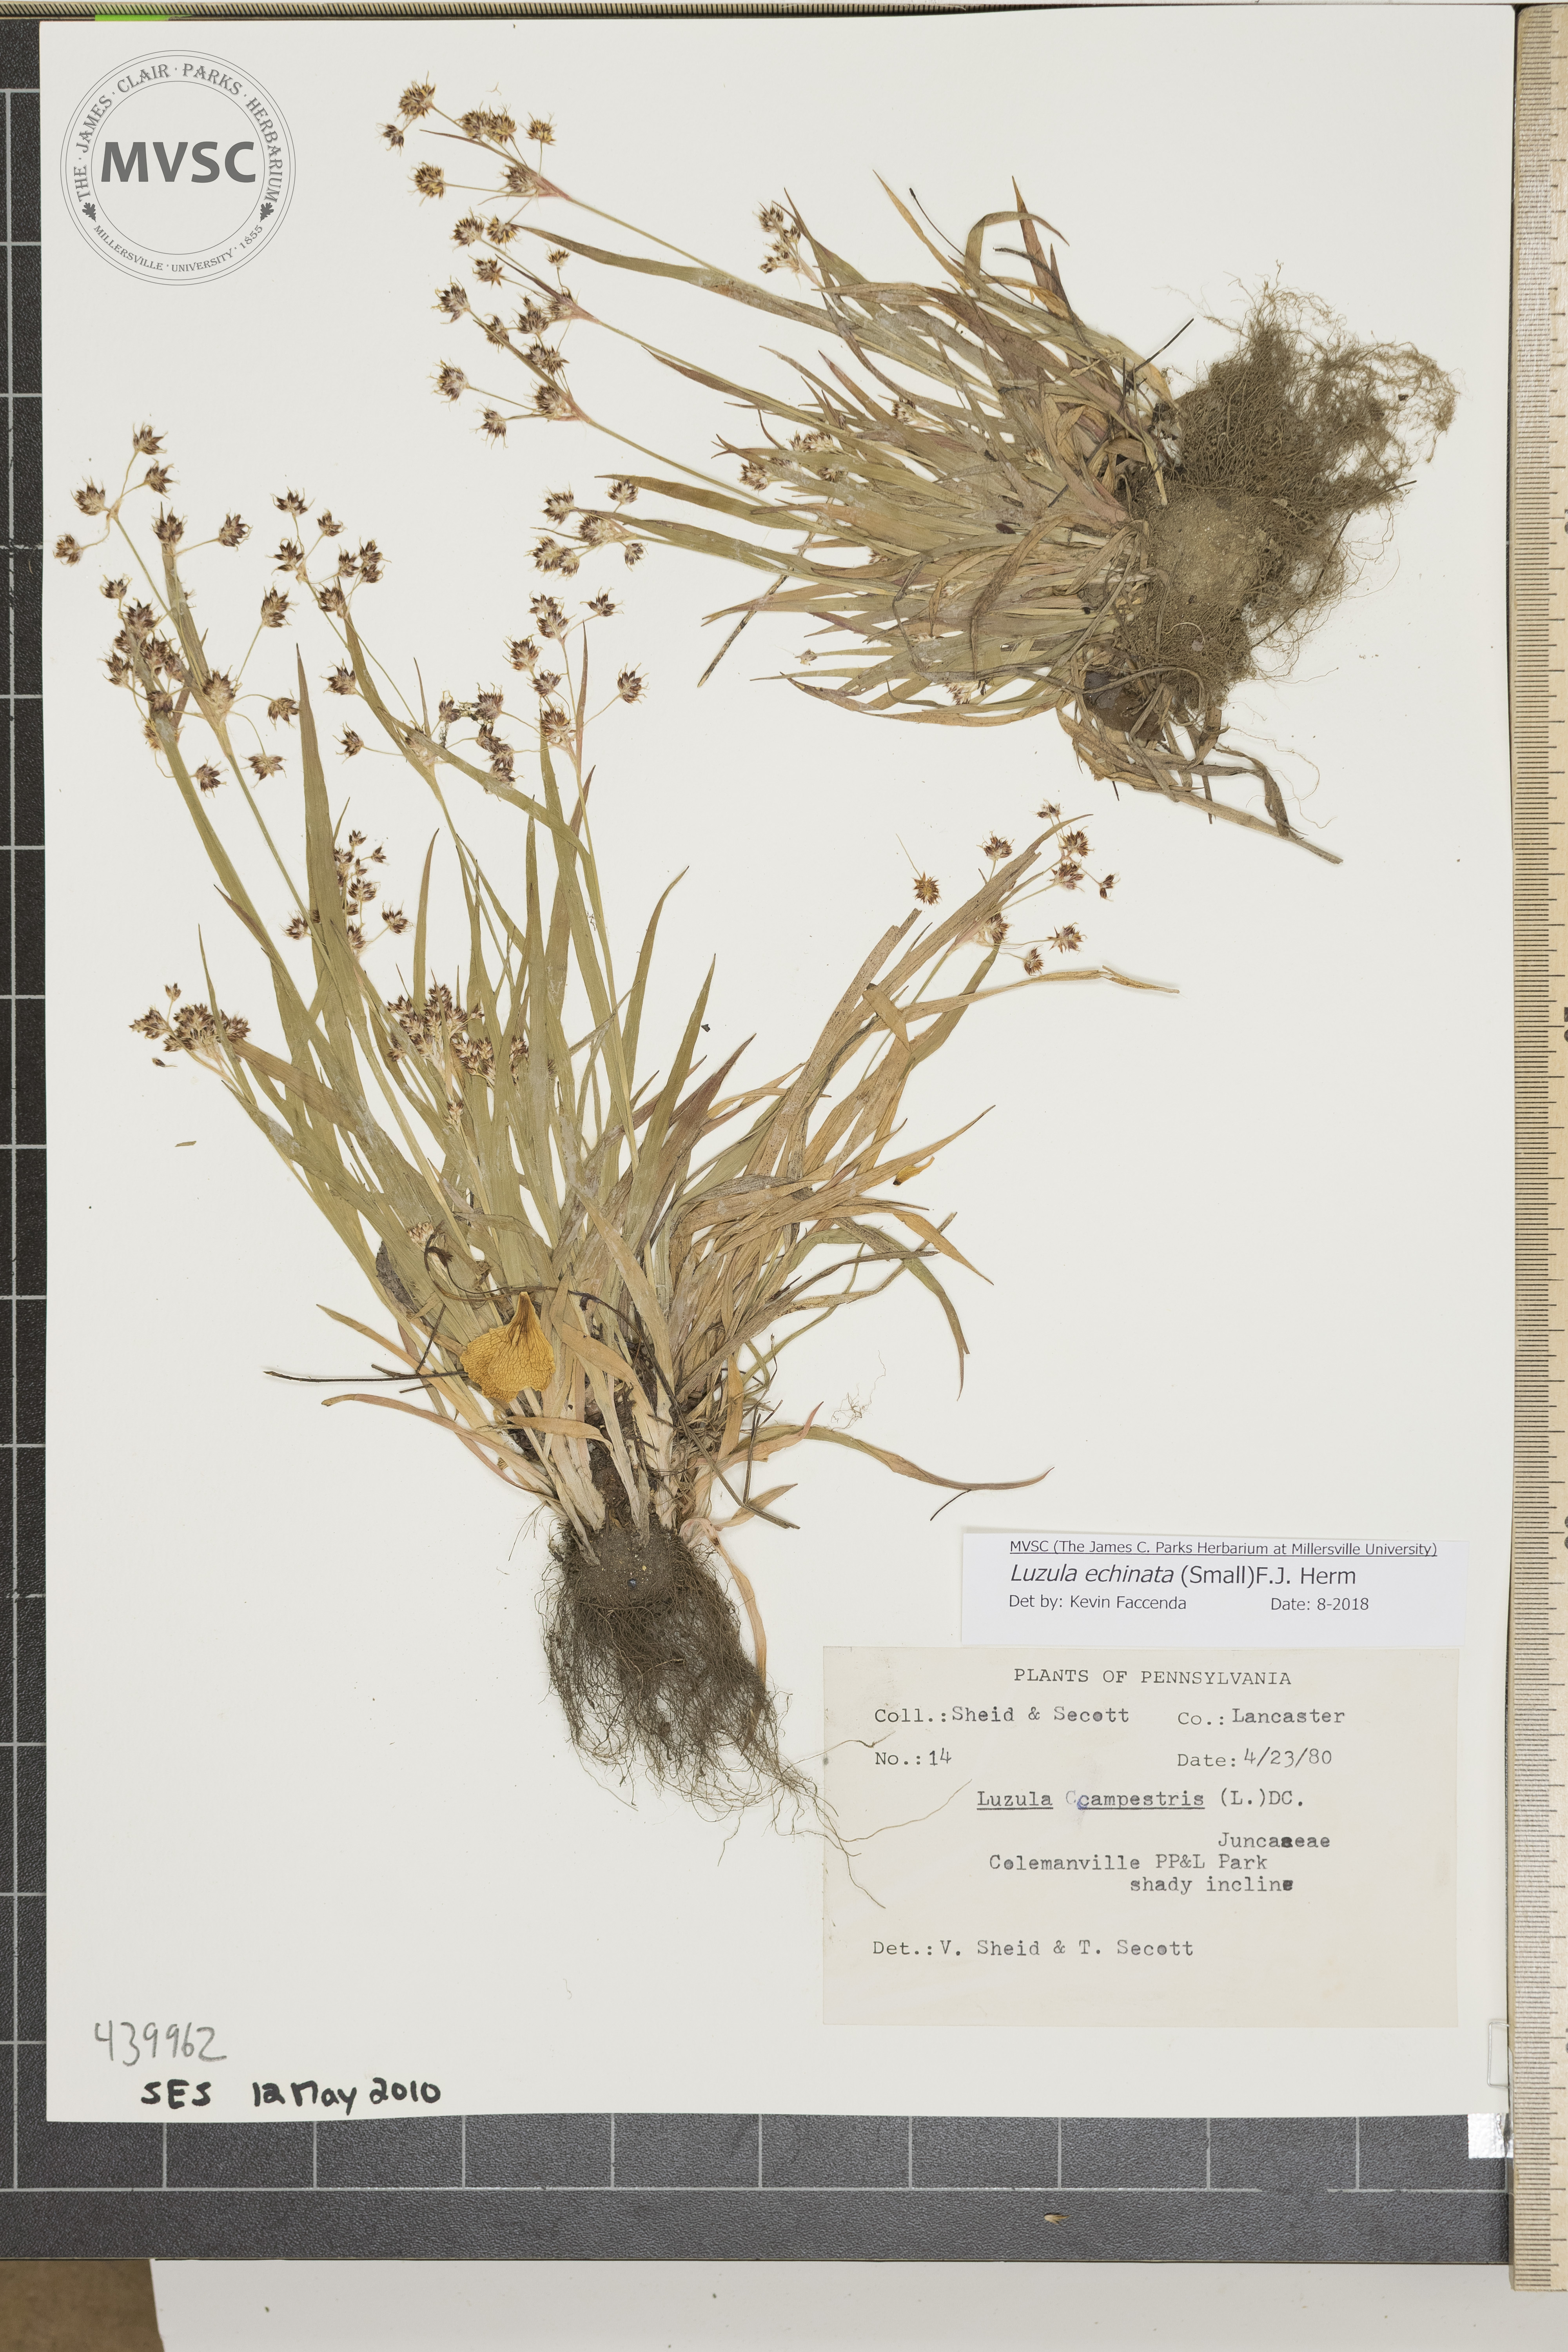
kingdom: Plantae
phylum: Tracheophyta
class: Liliopsida
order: Poales
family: Juncaceae
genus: Luzula
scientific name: Luzula echinata
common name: Hedgehog woodrush
